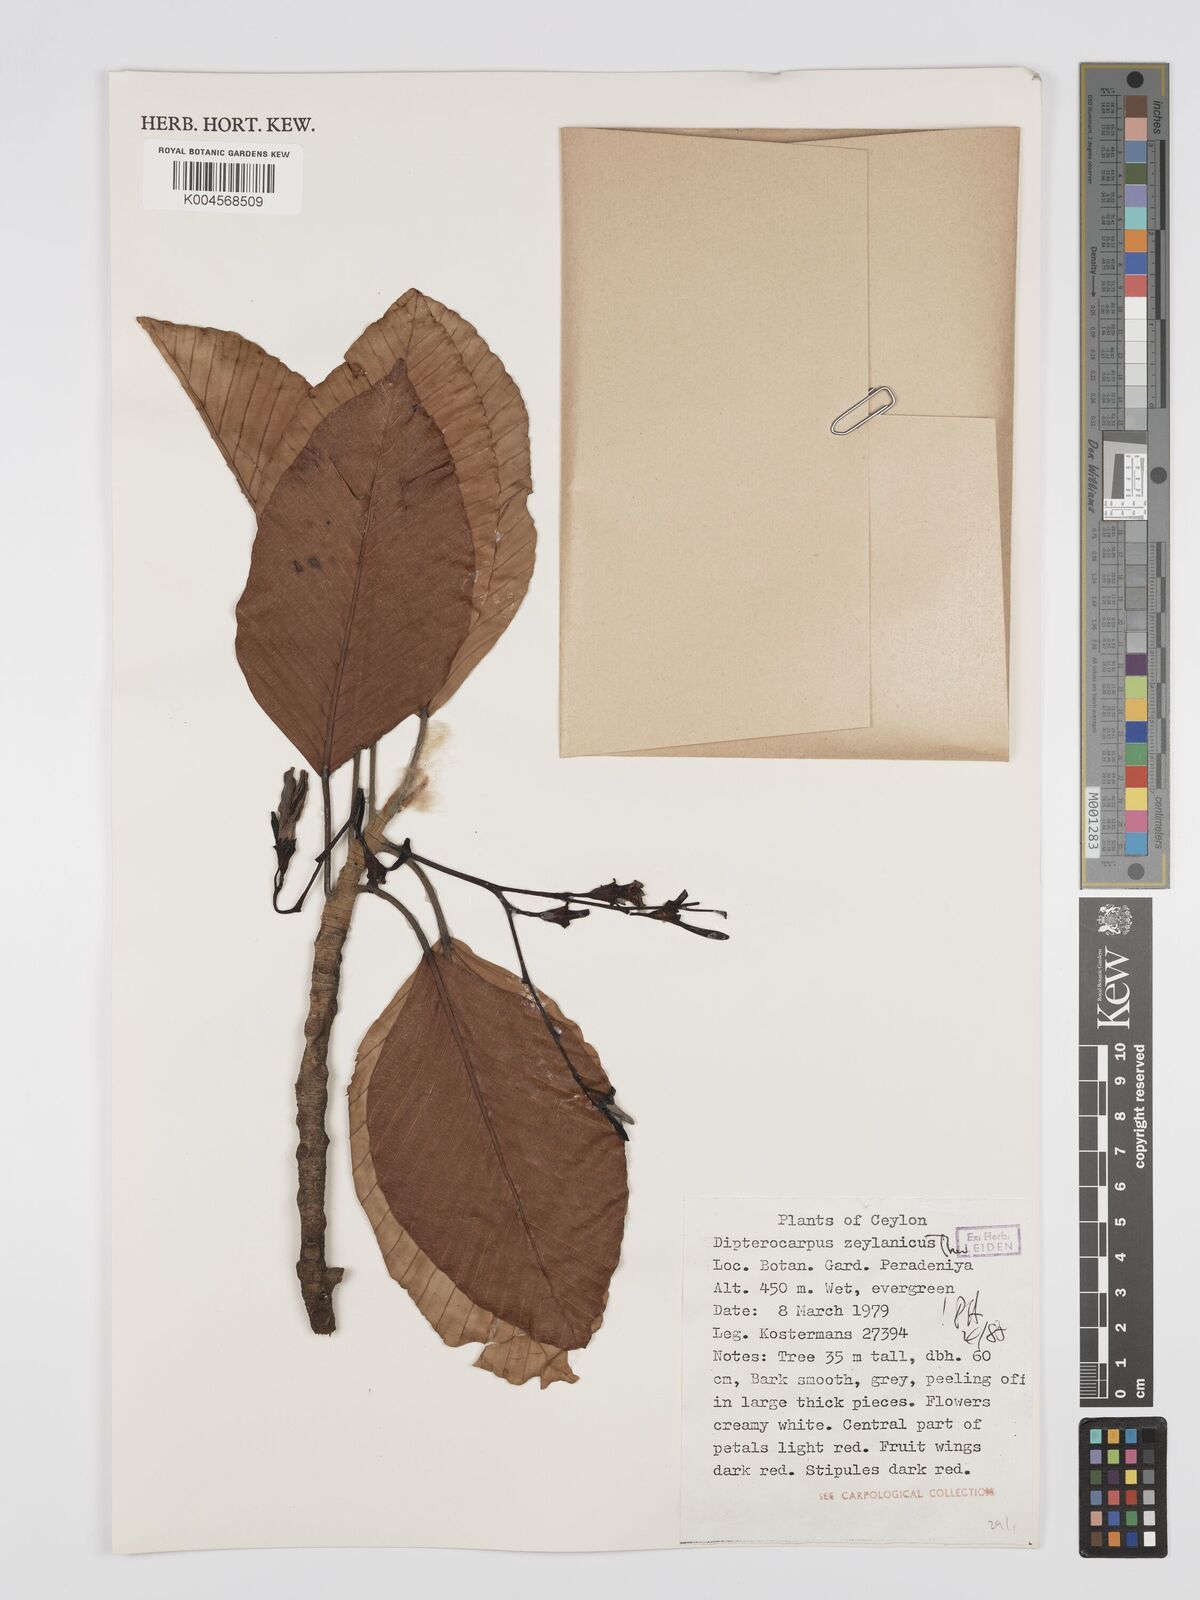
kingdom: Plantae
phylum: Tracheophyta
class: Magnoliopsida
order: Malvales
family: Dipterocarpaceae
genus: Dipterocarpus
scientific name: Dipterocarpus zeylanicus
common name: Hora
